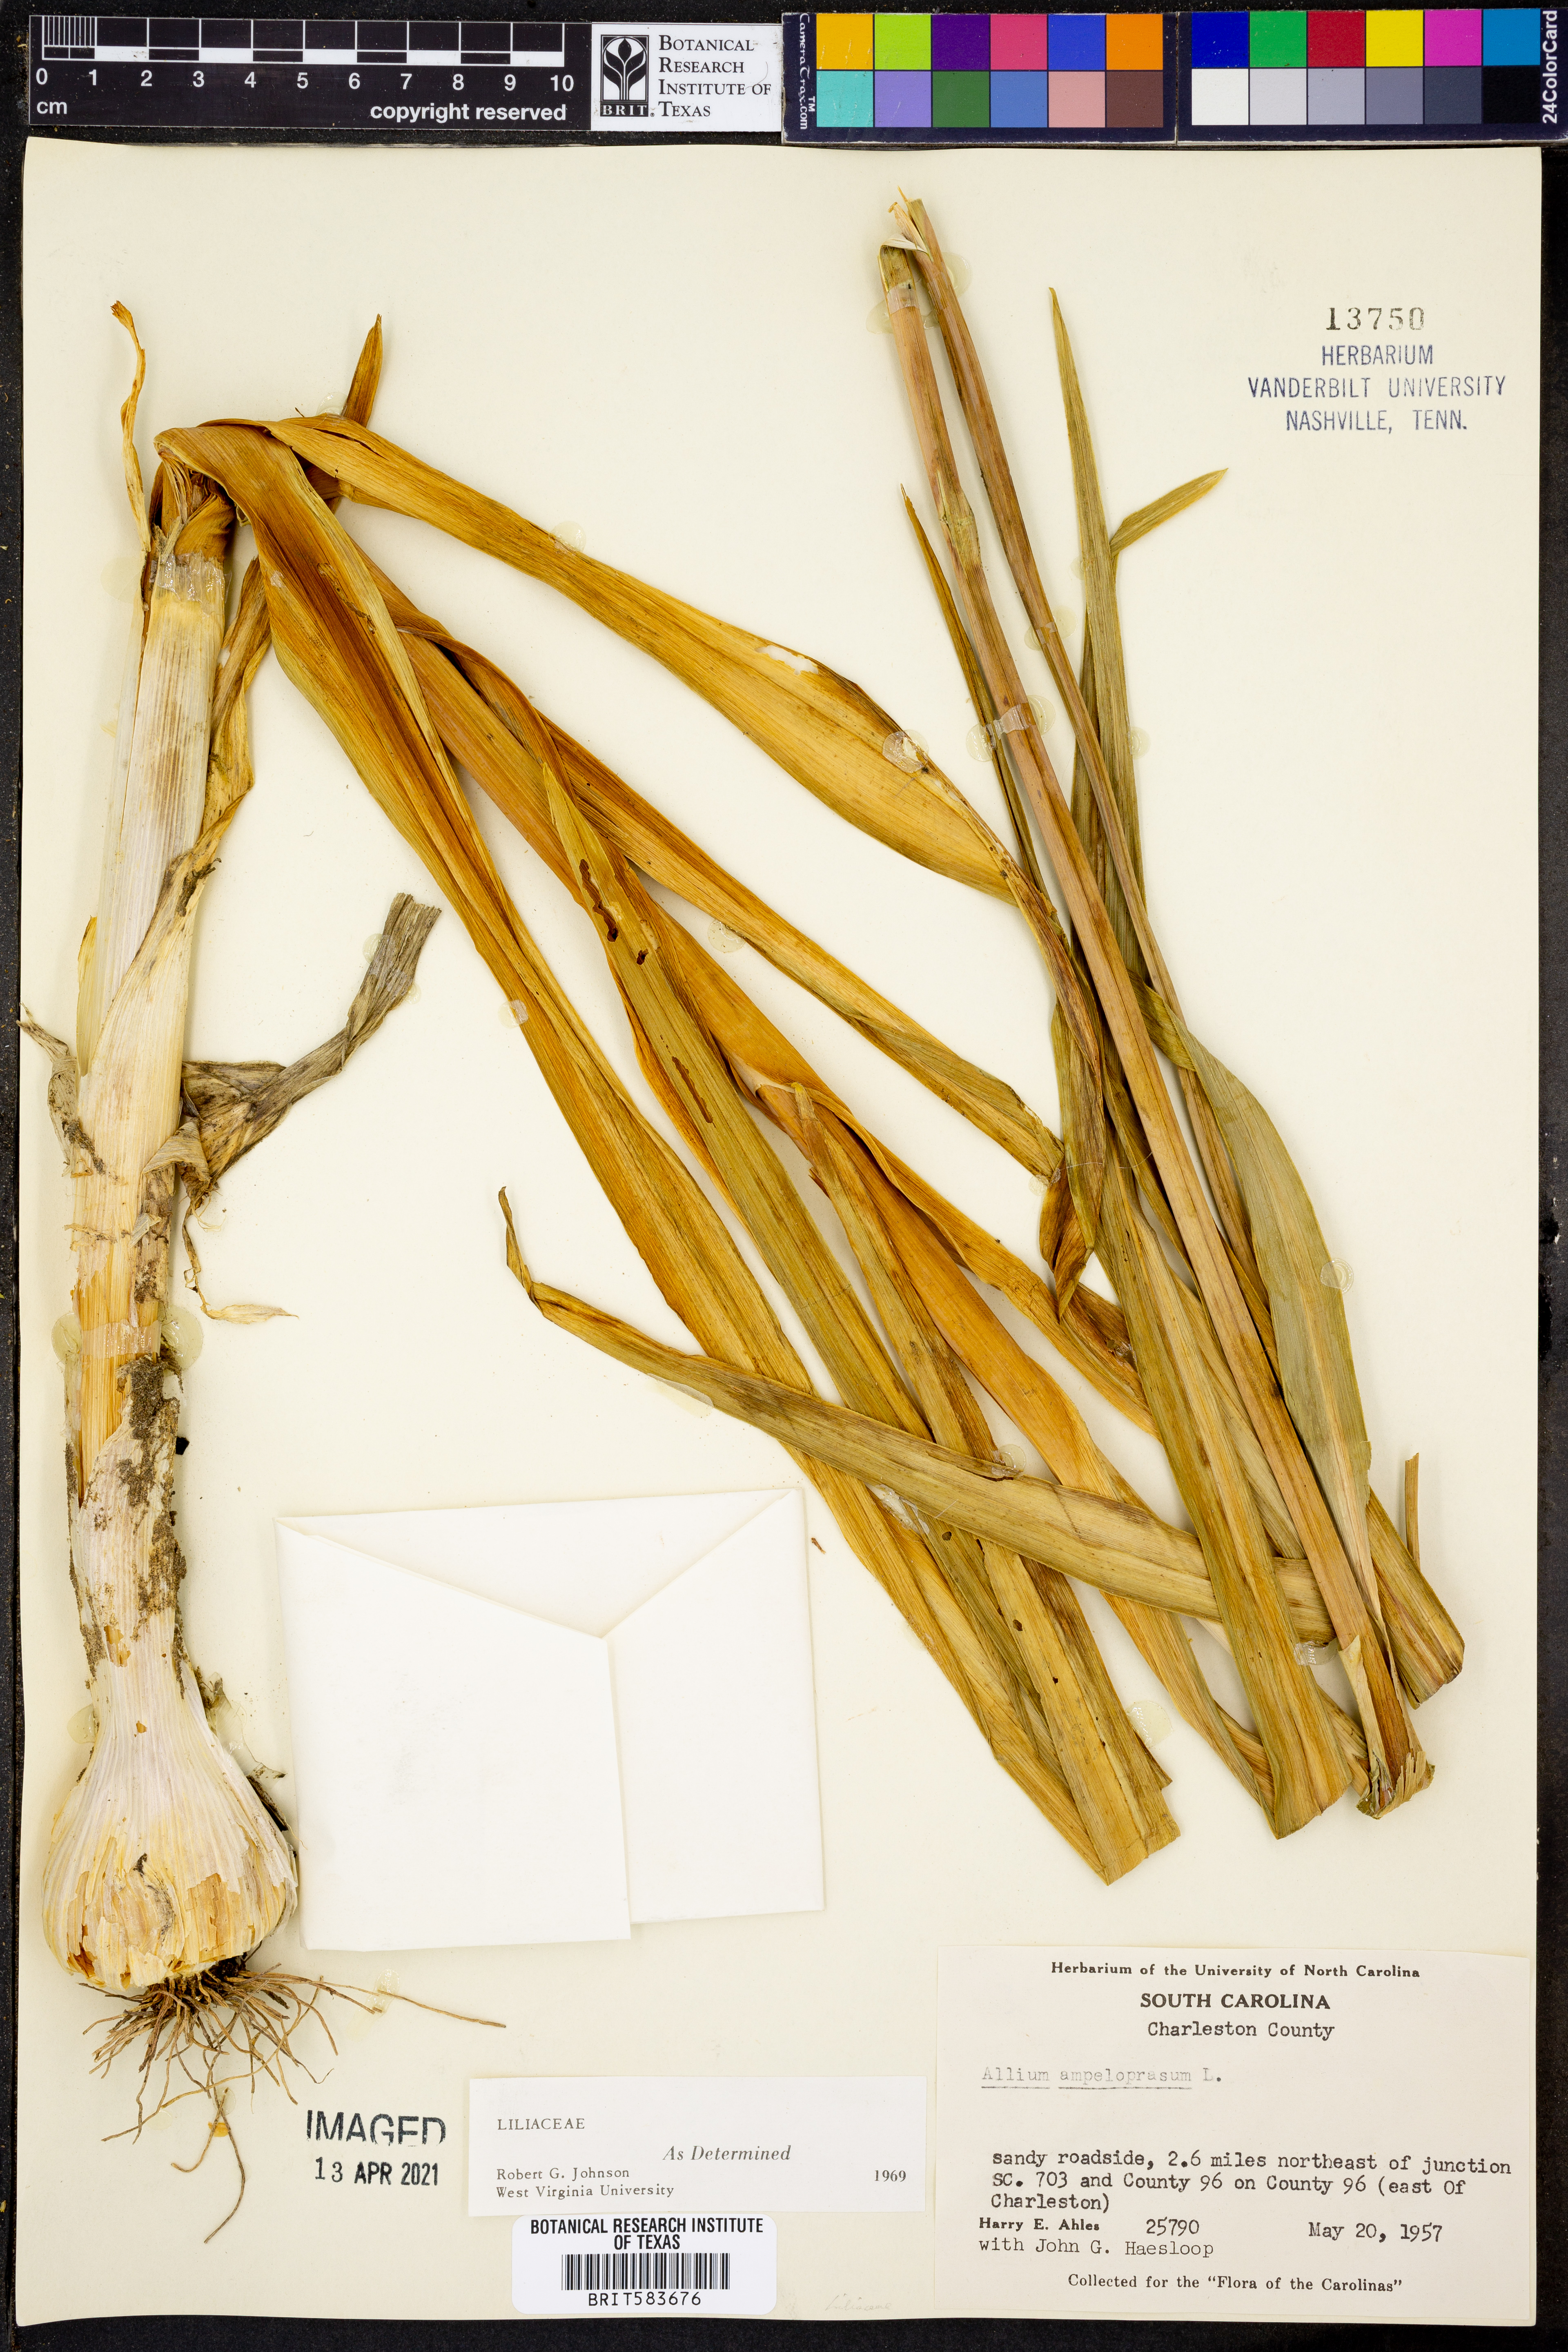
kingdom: Plantae
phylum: Tracheophyta
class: Liliopsida
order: Asparagales
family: Amaryllidaceae
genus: Allium
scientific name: Allium ampeloprasum
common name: Wild leek
